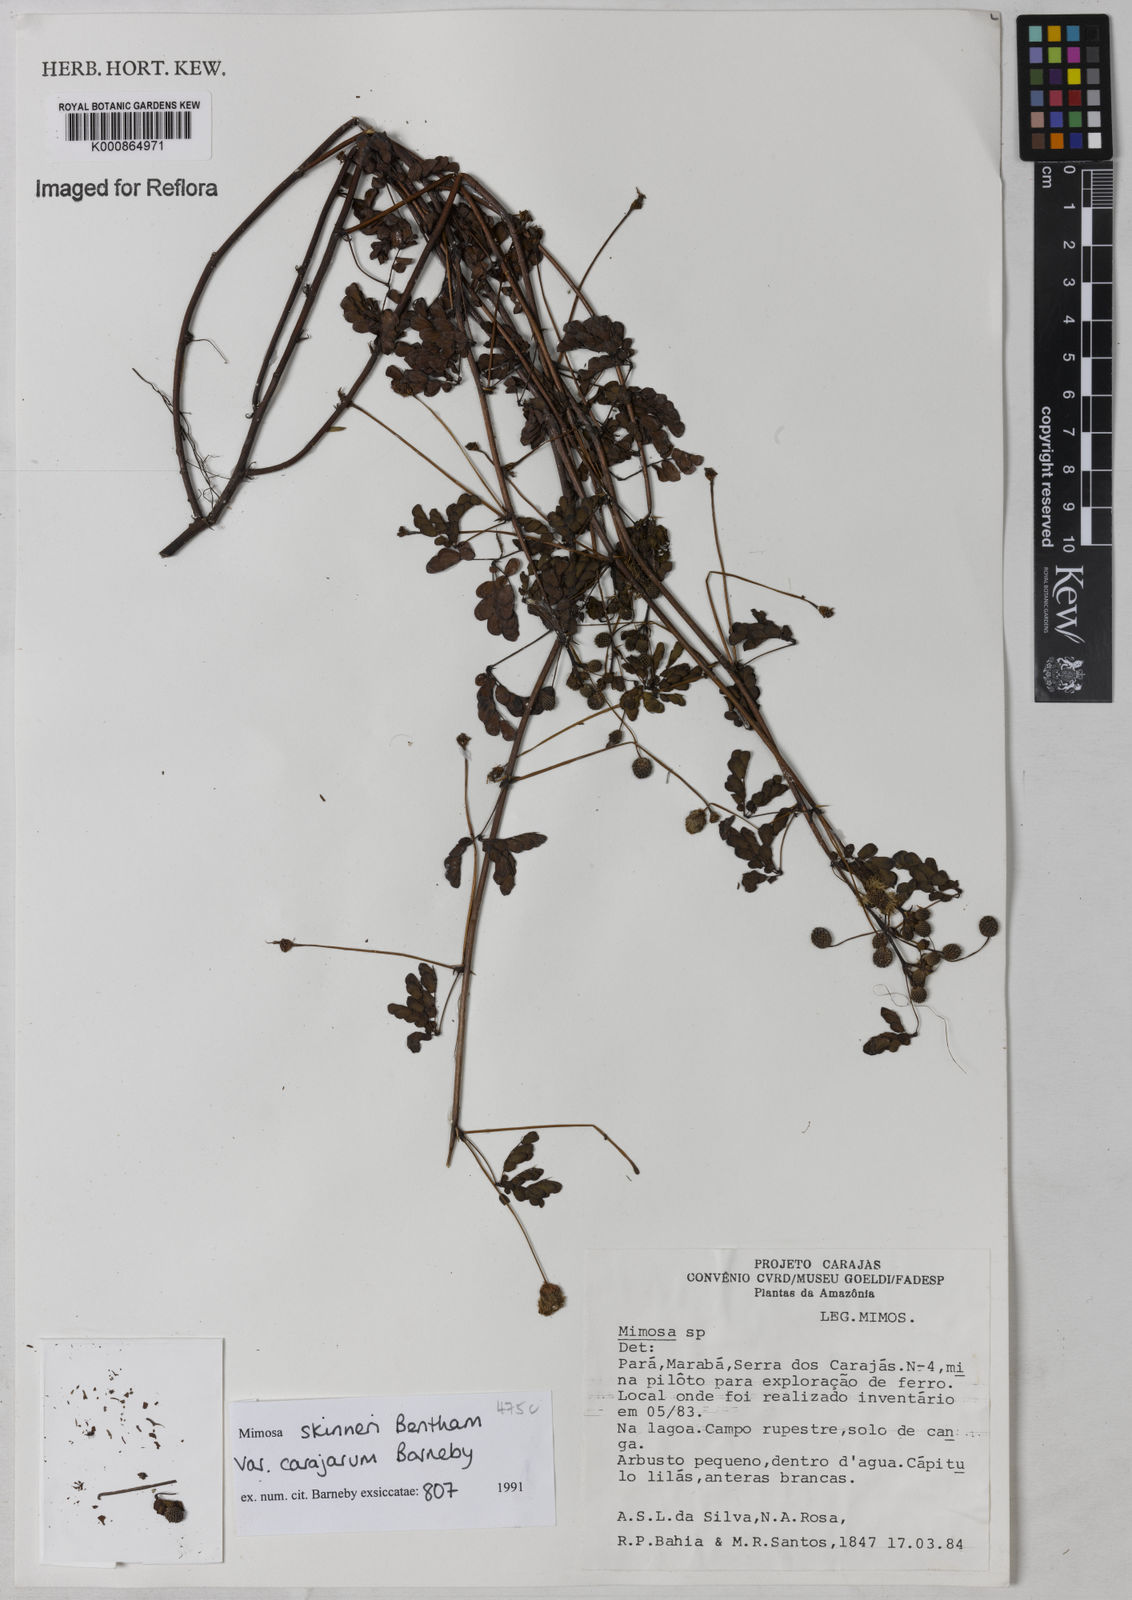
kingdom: Plantae
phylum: Tracheophyta
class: Magnoliopsida
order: Fabales
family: Fabaceae
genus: Mimosa
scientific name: Mimosa skinneri
